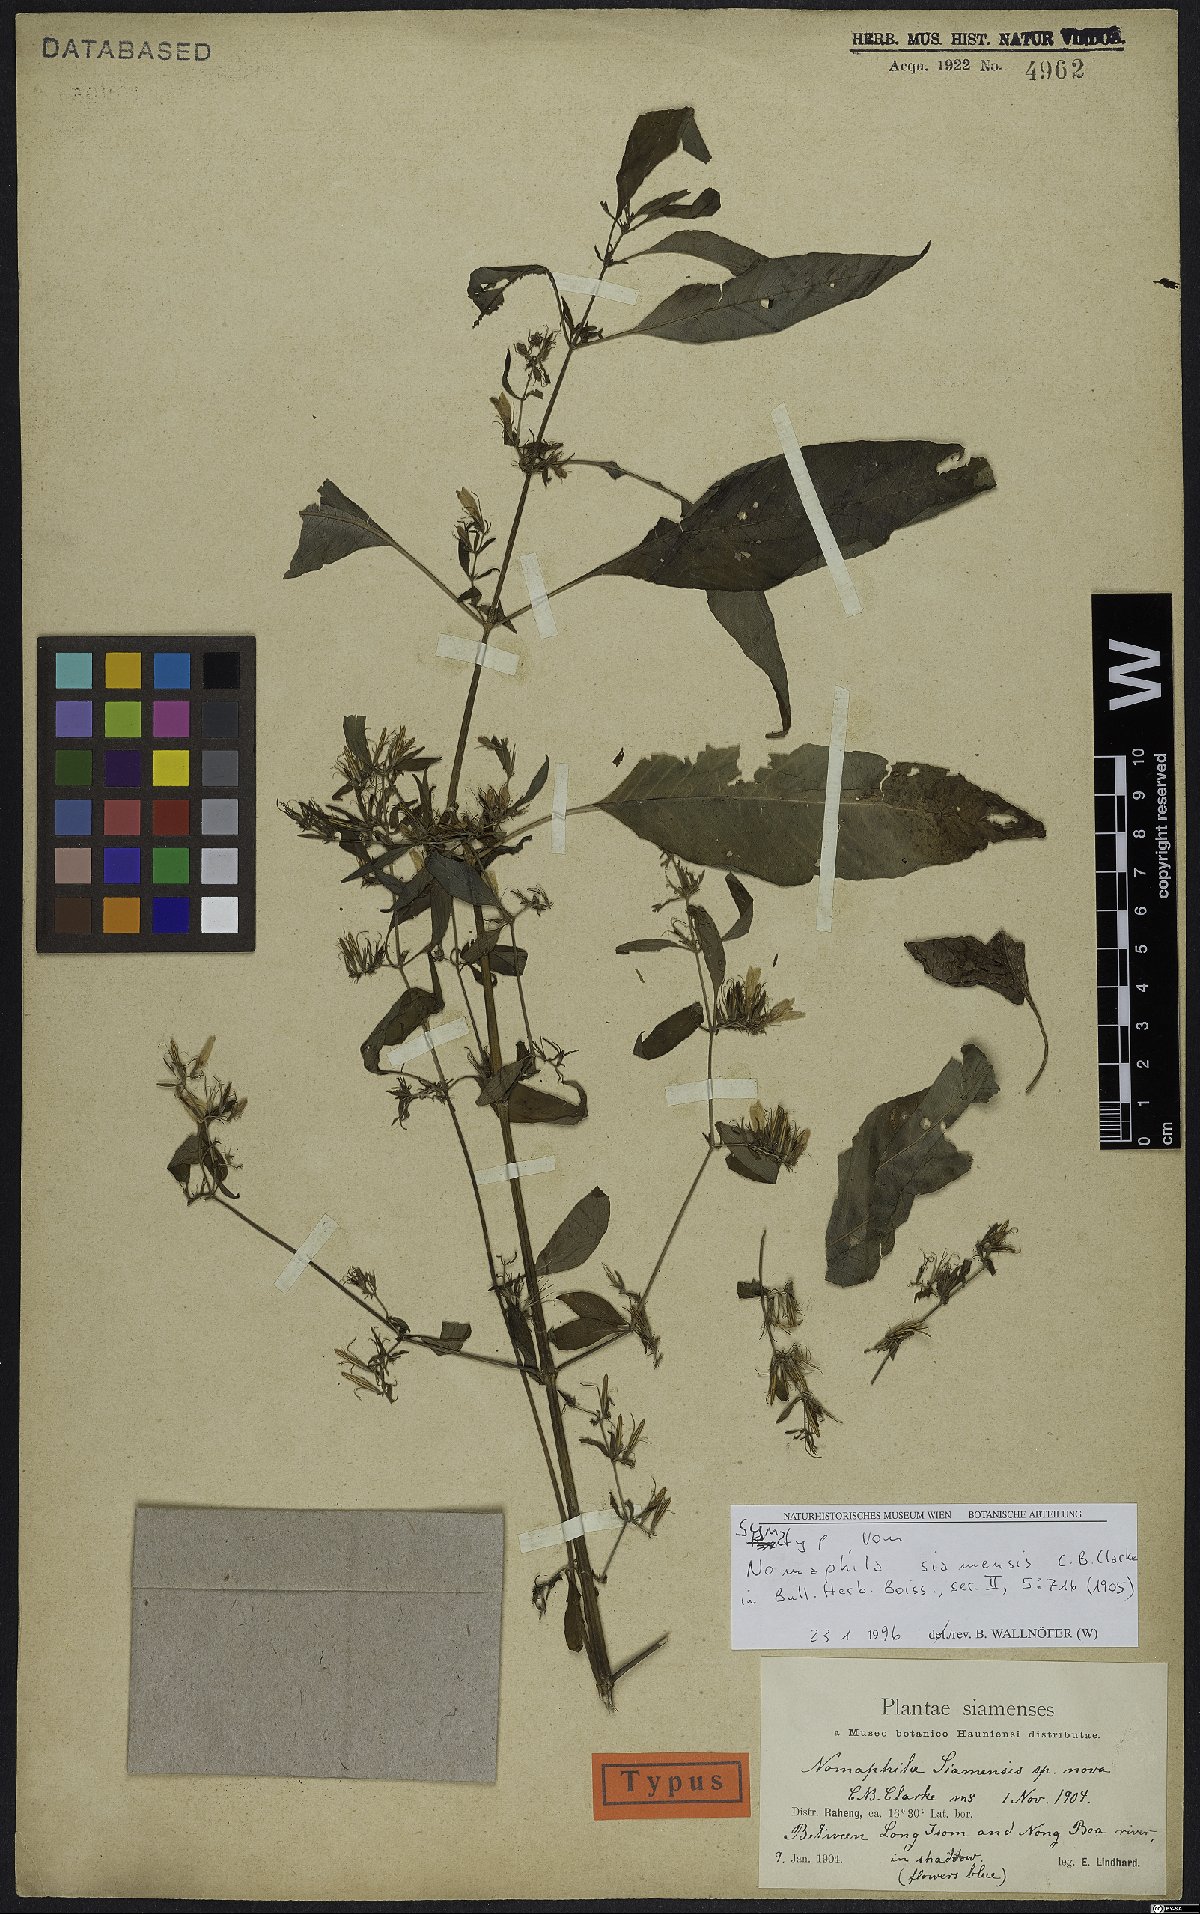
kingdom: Plantae
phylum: Tracheophyta
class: Magnoliopsida
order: Lamiales
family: Acanthaceae
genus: Hygrophila
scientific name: Hygrophila corymbosa
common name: Starhorn
